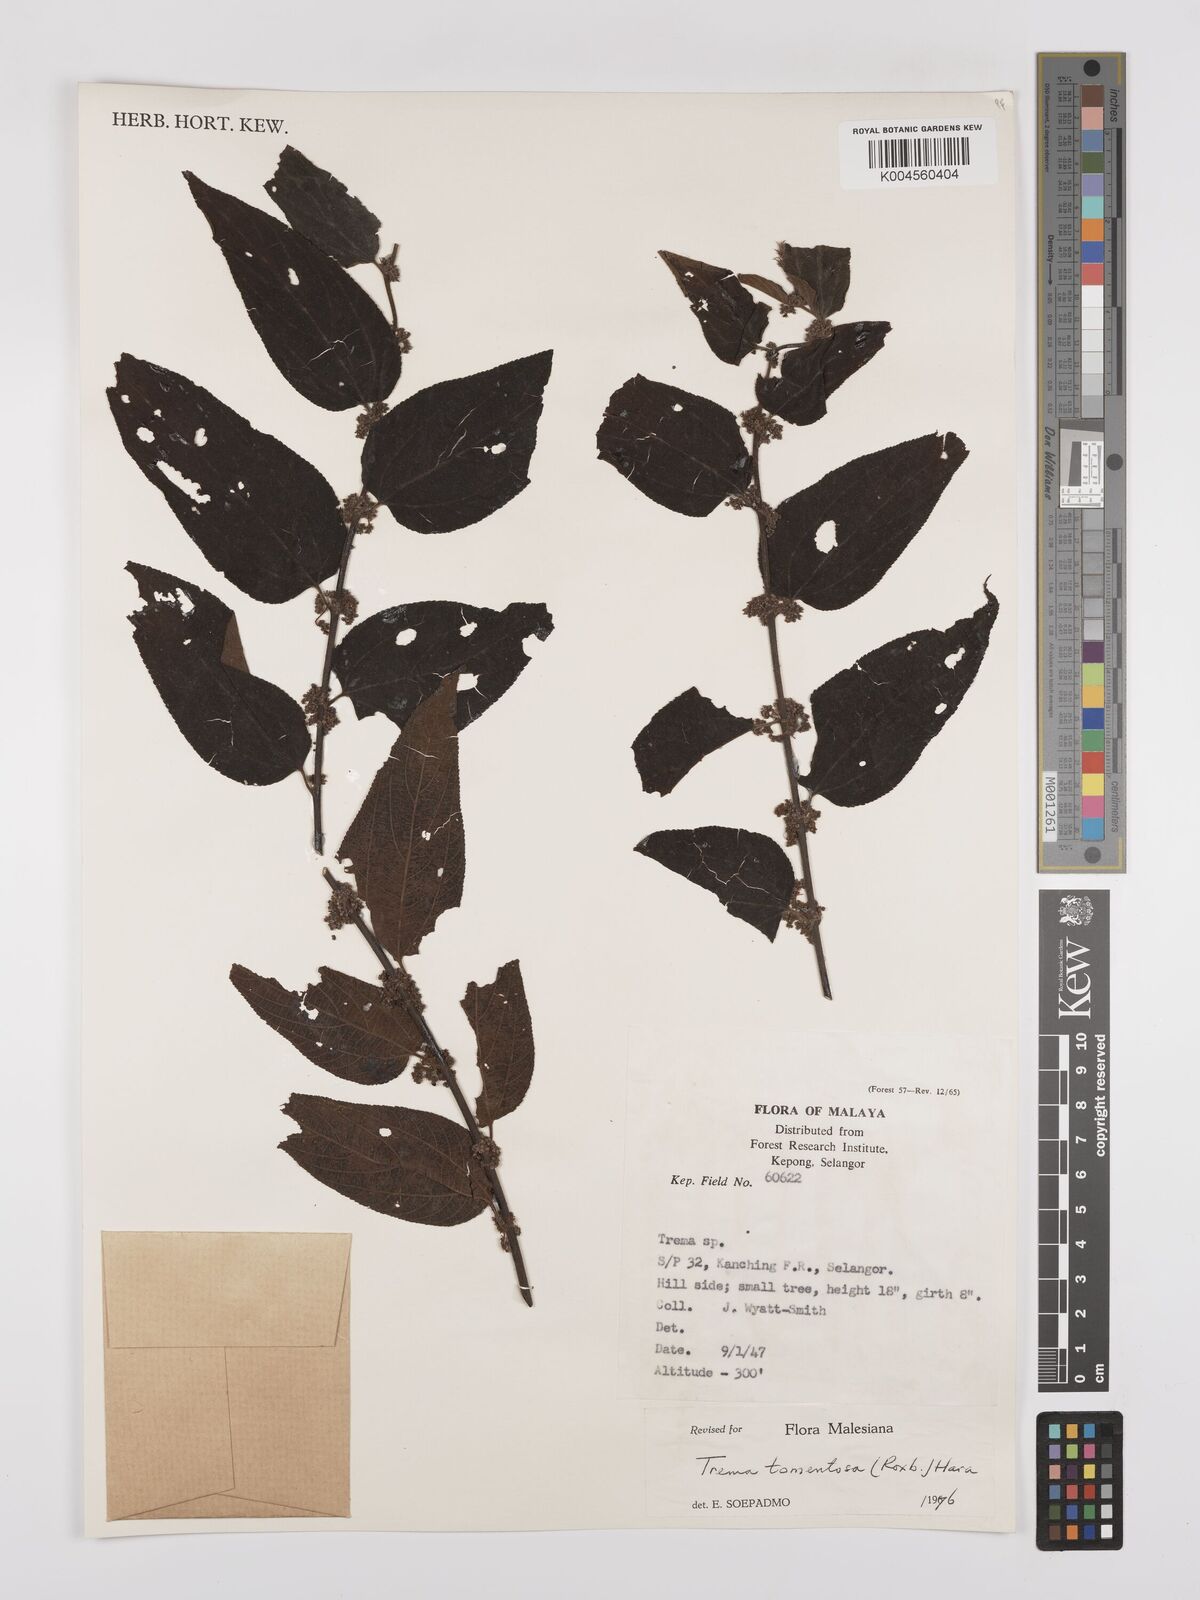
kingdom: Plantae
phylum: Tracheophyta
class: Magnoliopsida
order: Rosales
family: Cannabaceae
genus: Trema
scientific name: Trema tomentosum
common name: Peach-leaf-poisonbush
